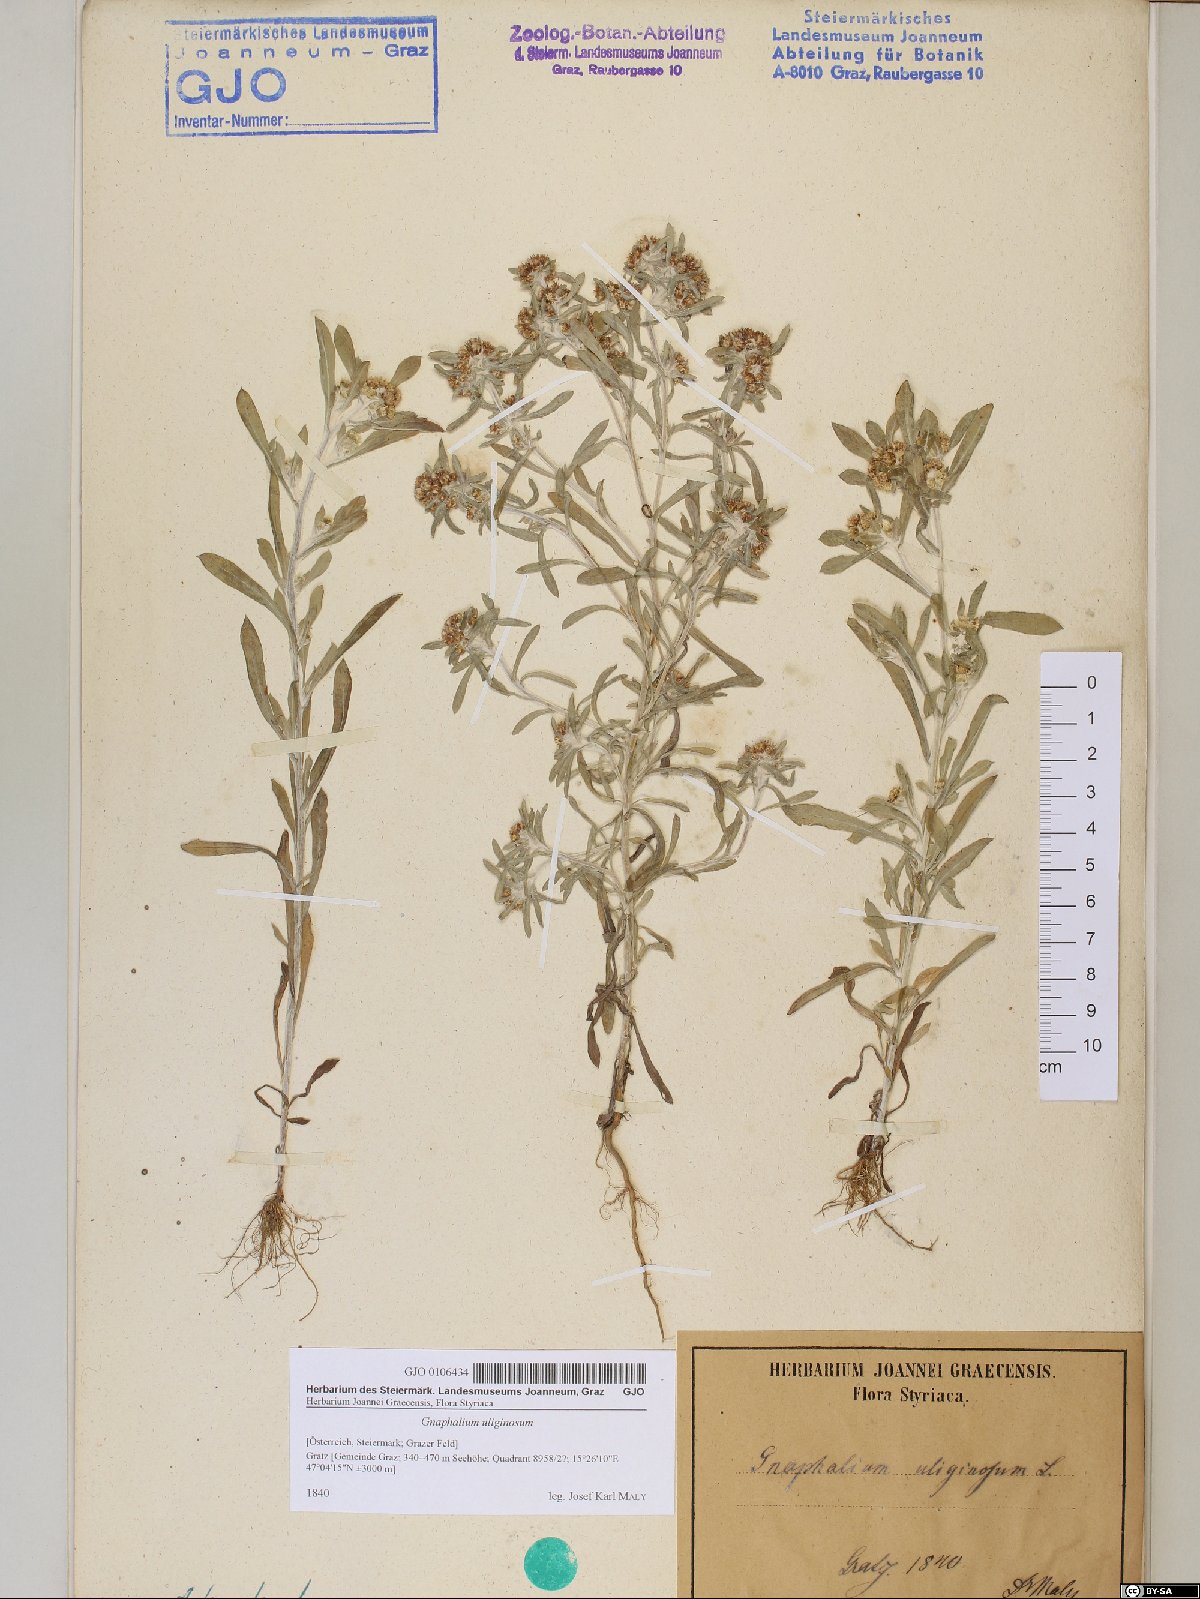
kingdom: Plantae
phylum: Tracheophyta
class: Magnoliopsida
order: Asterales
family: Asteraceae
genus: Gnaphalium
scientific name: Gnaphalium uliginosum
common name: Marsh cudweed
